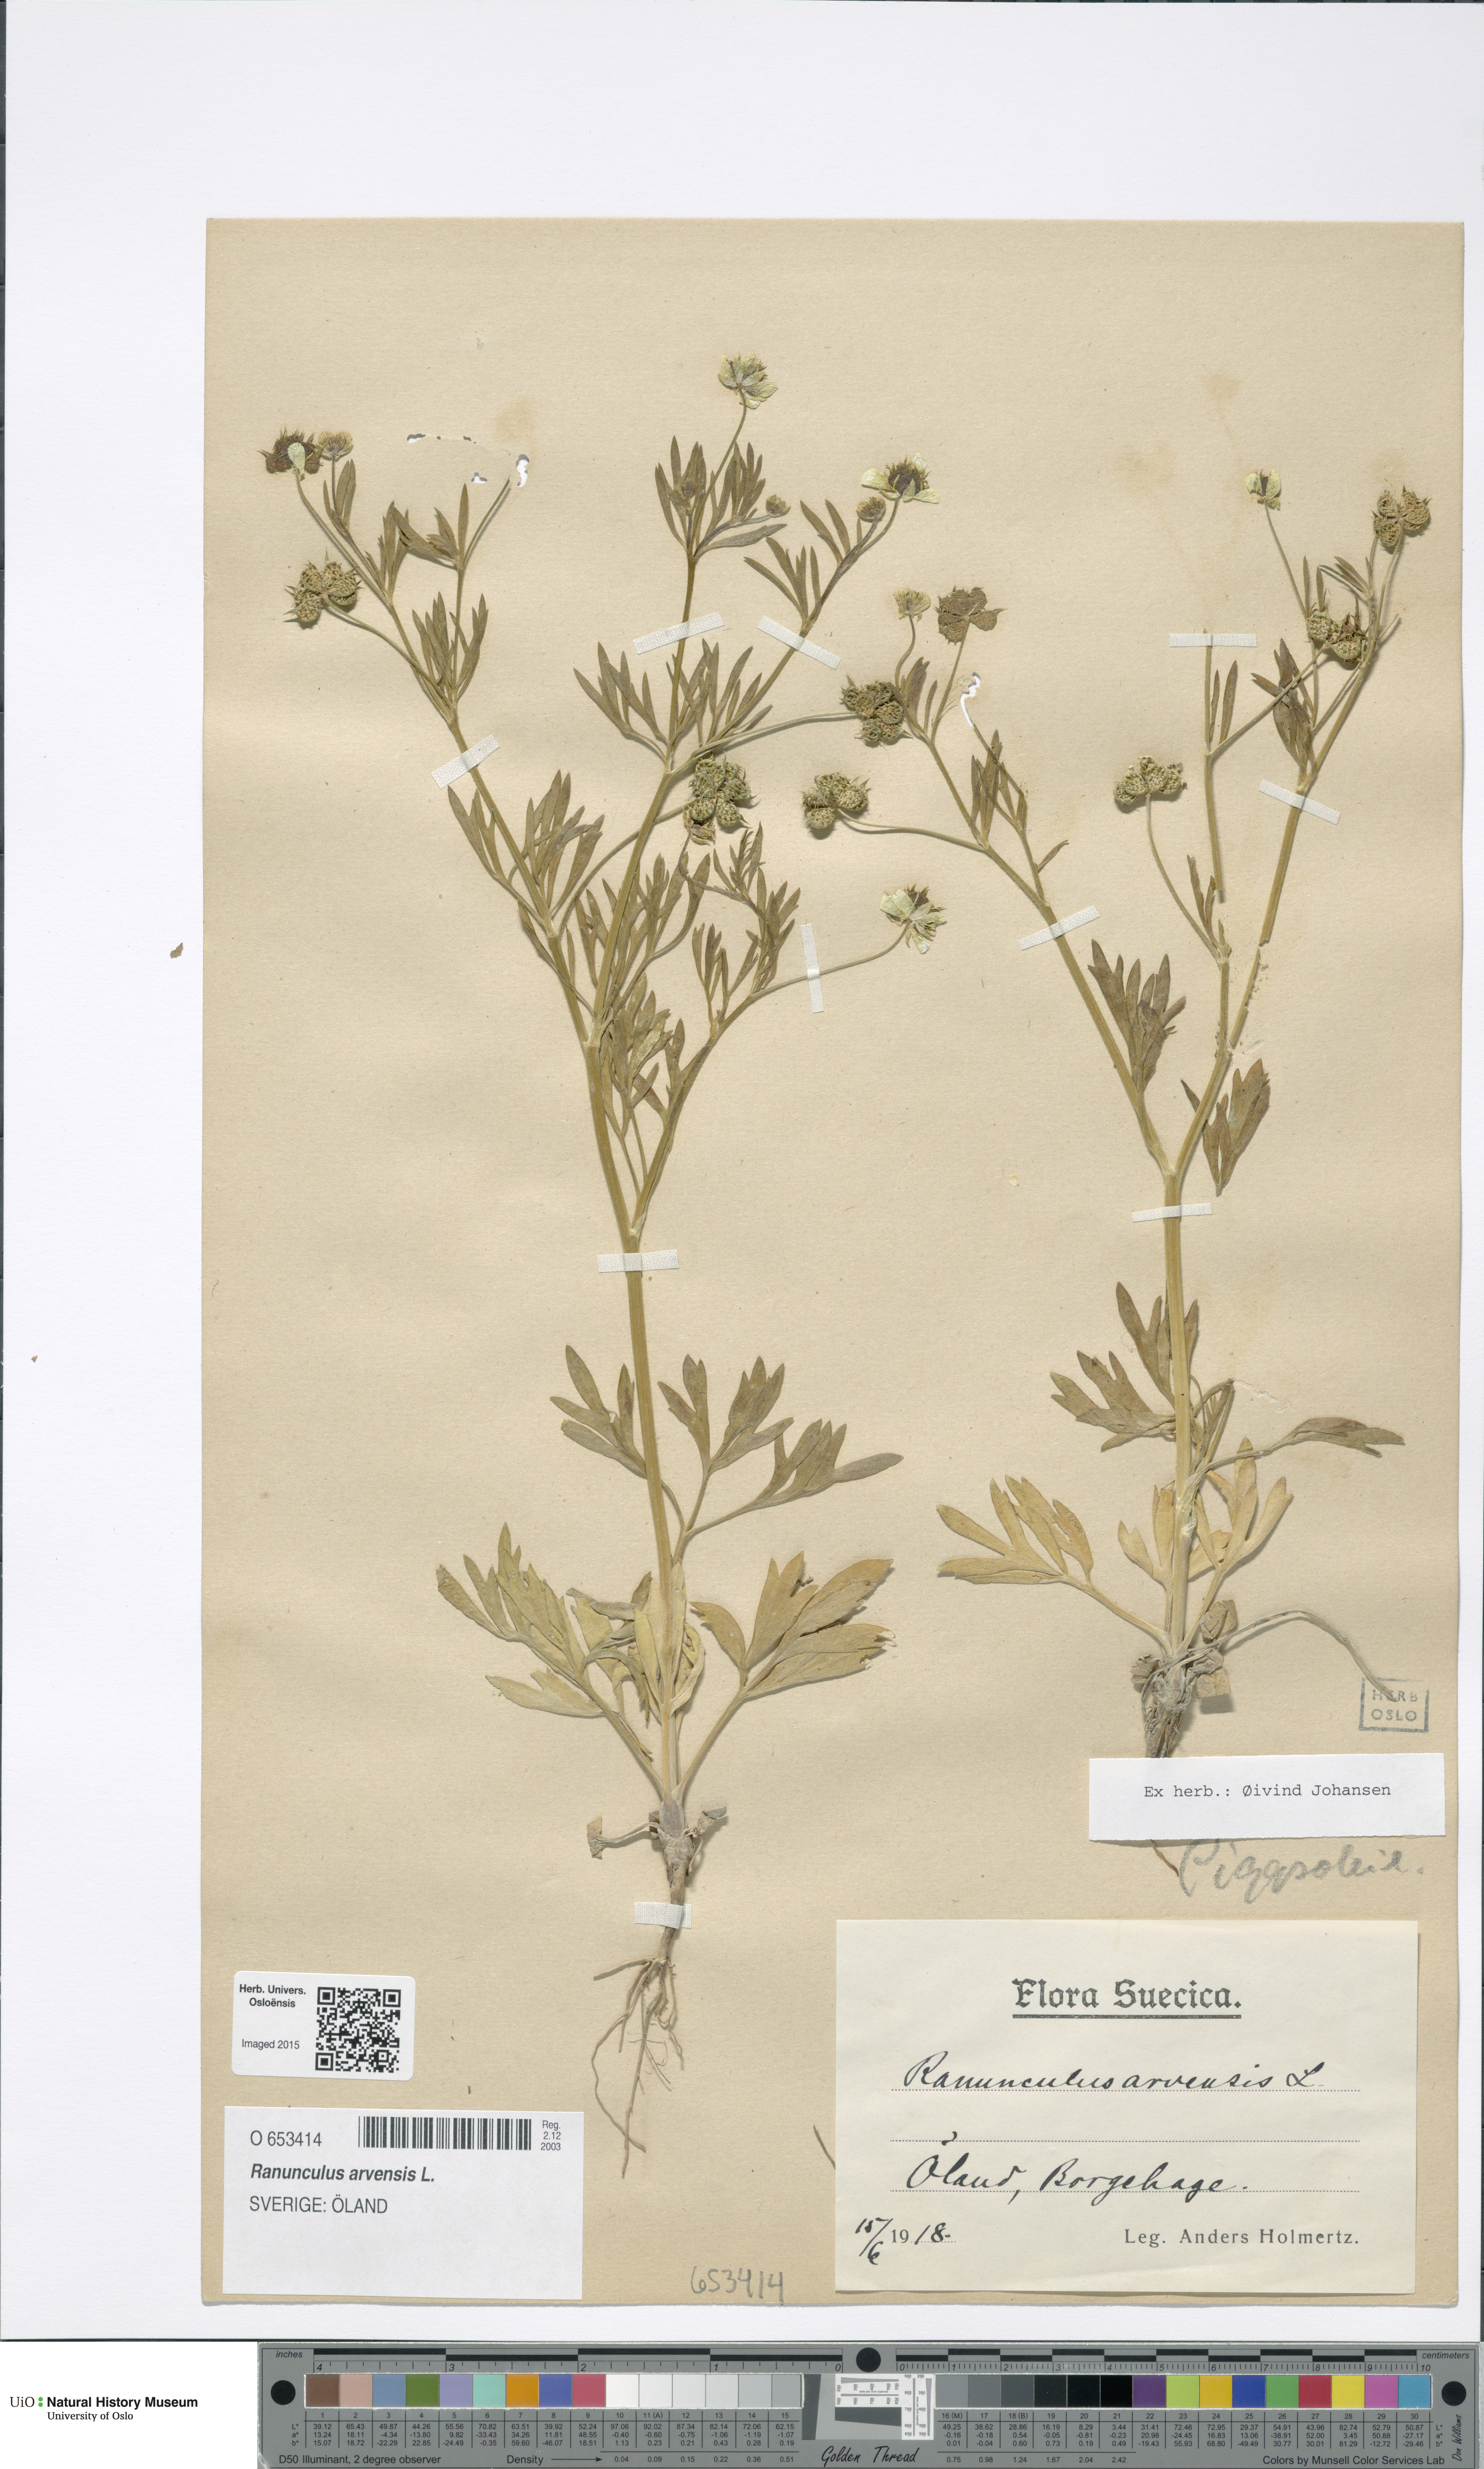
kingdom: Plantae
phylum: Tracheophyta
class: Magnoliopsida
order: Ranunculales
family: Ranunculaceae
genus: Ranunculus
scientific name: Ranunculus arvensis
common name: Corn buttercup
